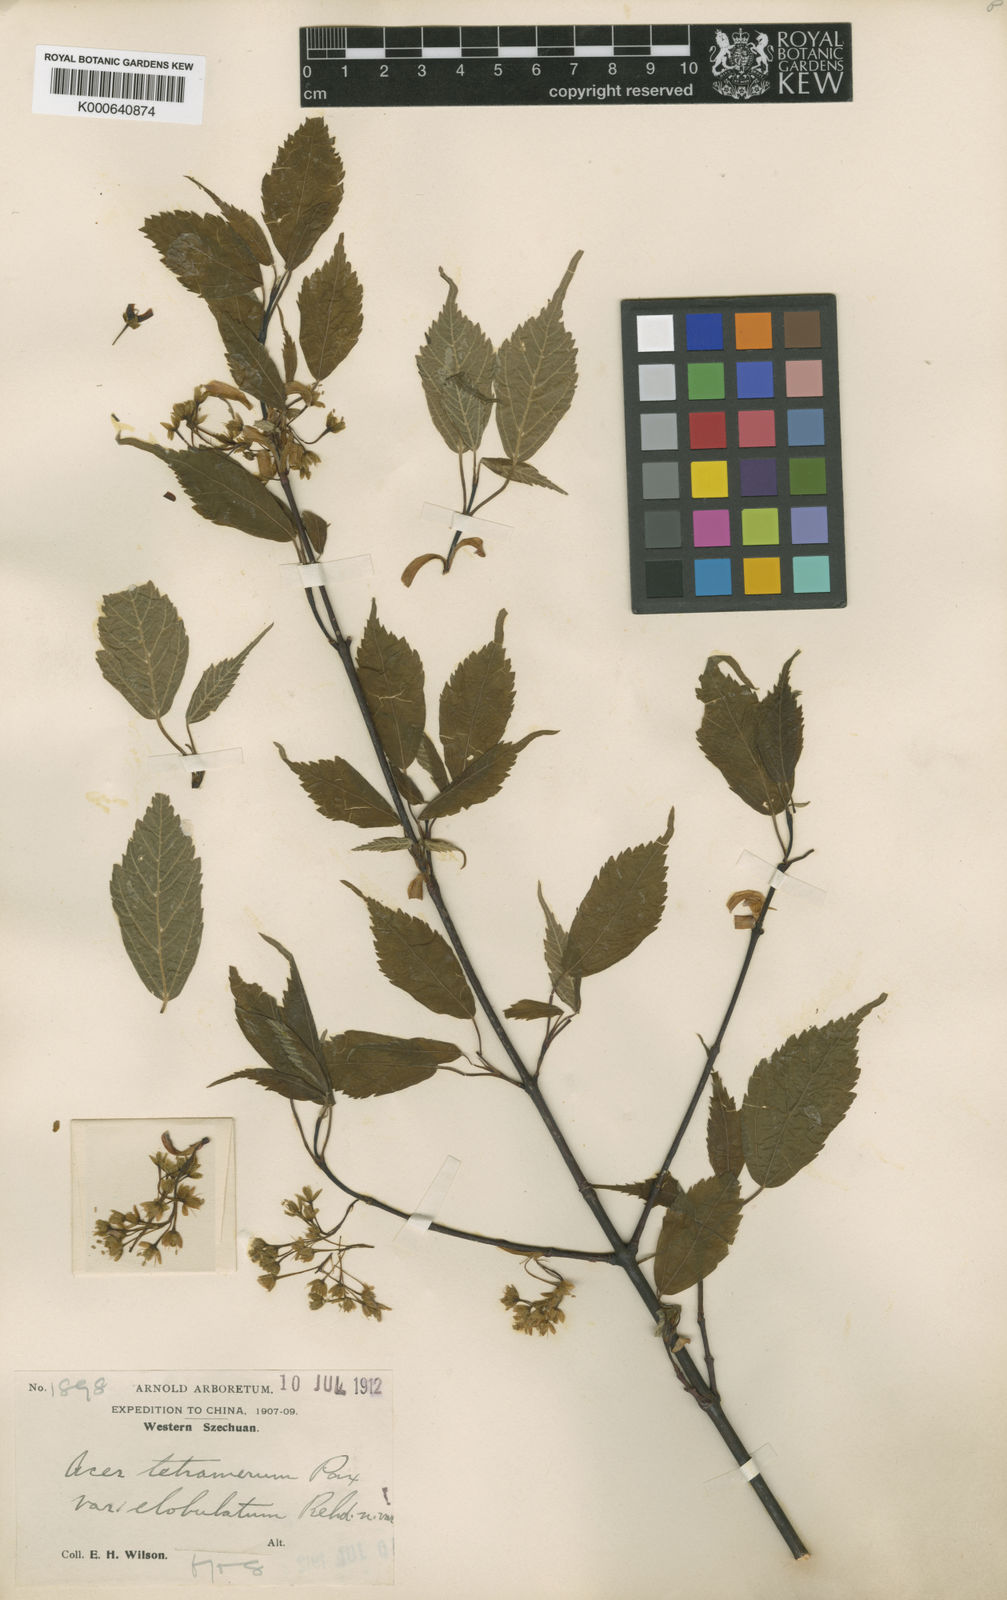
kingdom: Plantae
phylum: Tracheophyta
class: Magnoliopsida
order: Sapindales
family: Sapindaceae
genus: Acer
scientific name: Acer stachyophyllum
